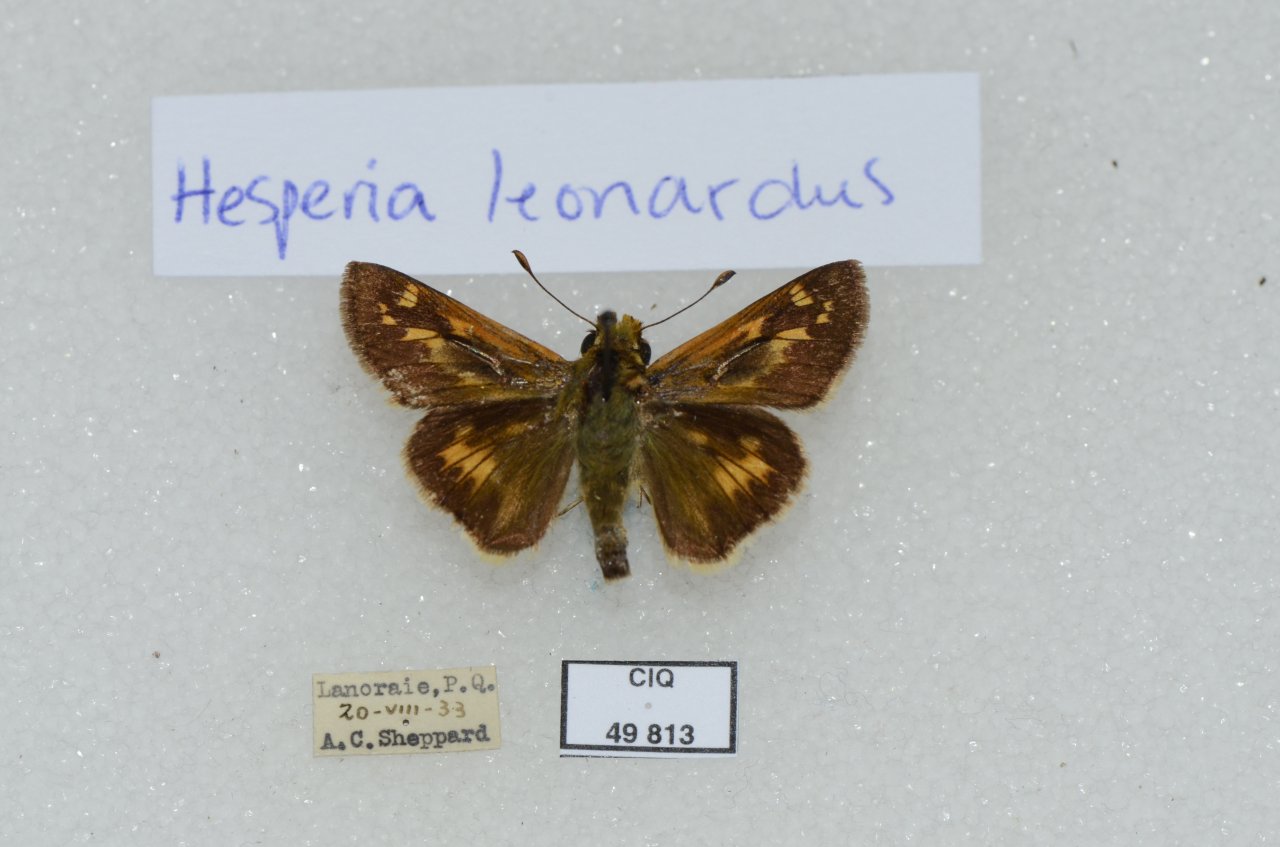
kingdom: Animalia
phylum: Arthropoda
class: Insecta
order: Lepidoptera
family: Hesperiidae
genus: Hesperia
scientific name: Hesperia leonardus
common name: Leonard's Skipper
